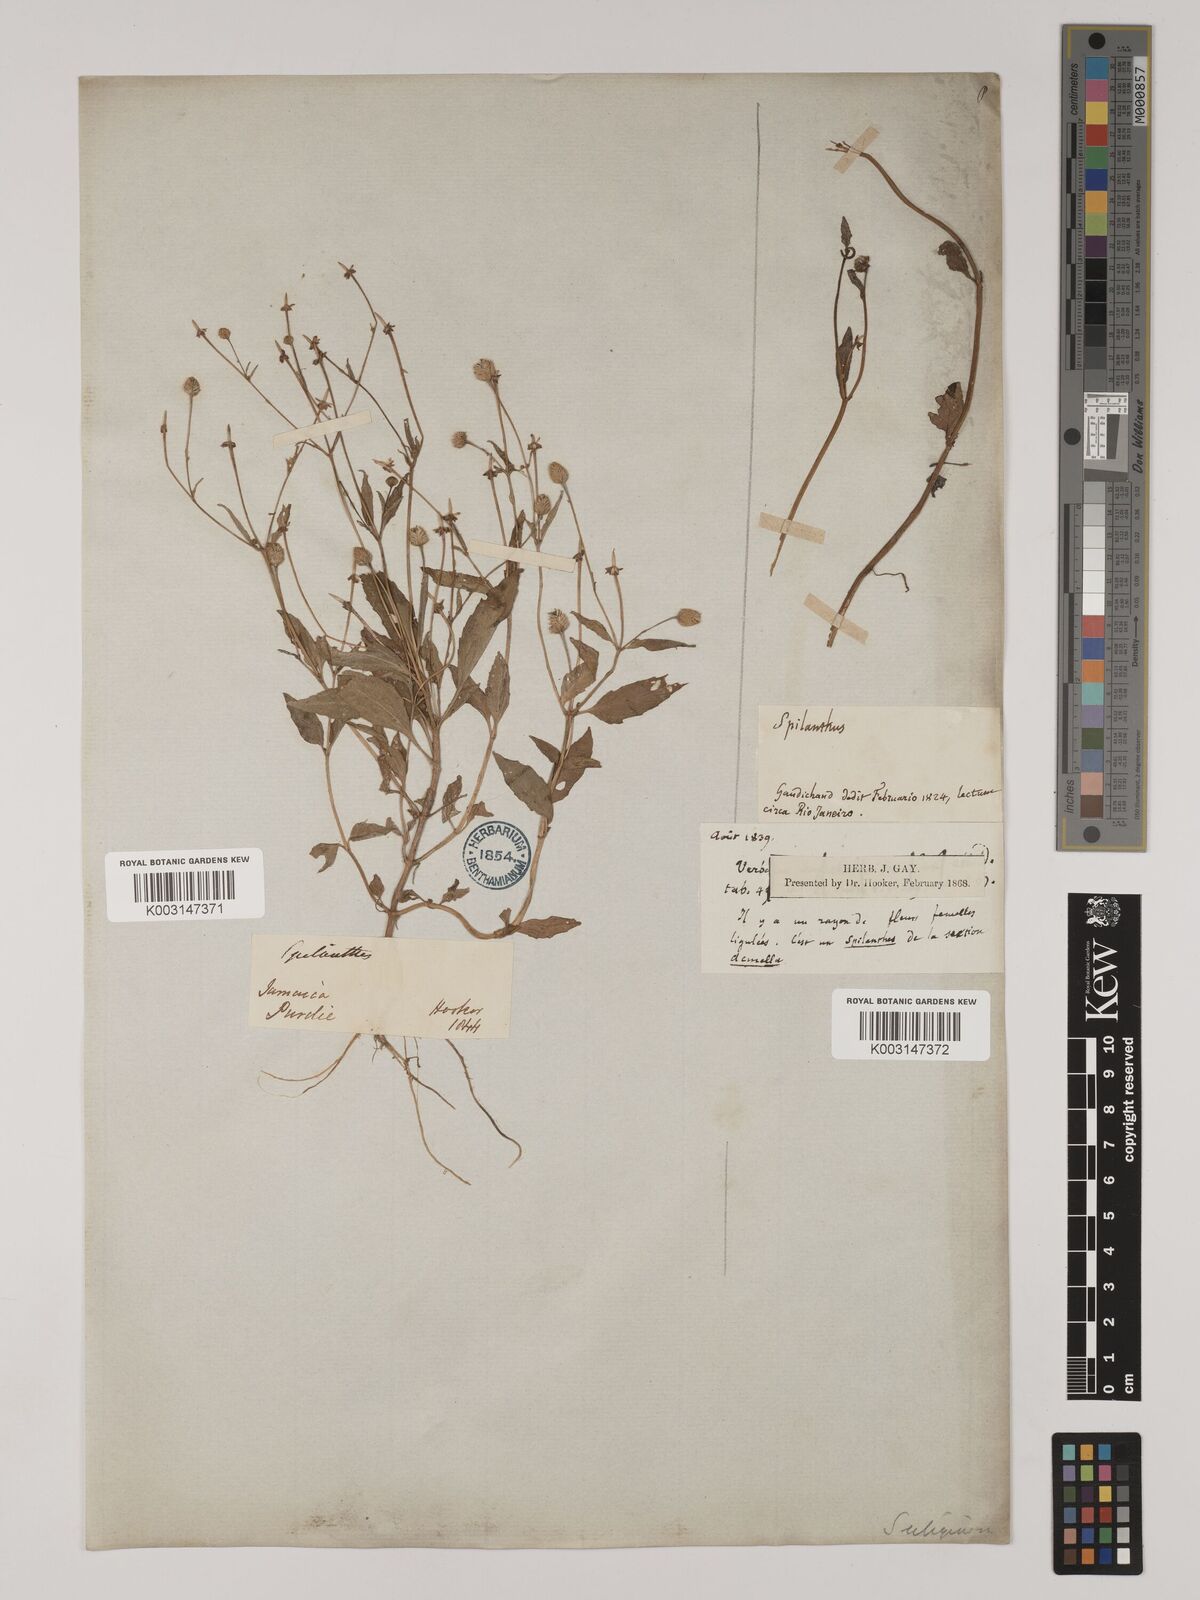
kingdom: Plantae
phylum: Tracheophyta
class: Magnoliopsida
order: Asterales
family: Asteraceae
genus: Acmella
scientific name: Acmella uliginosa
